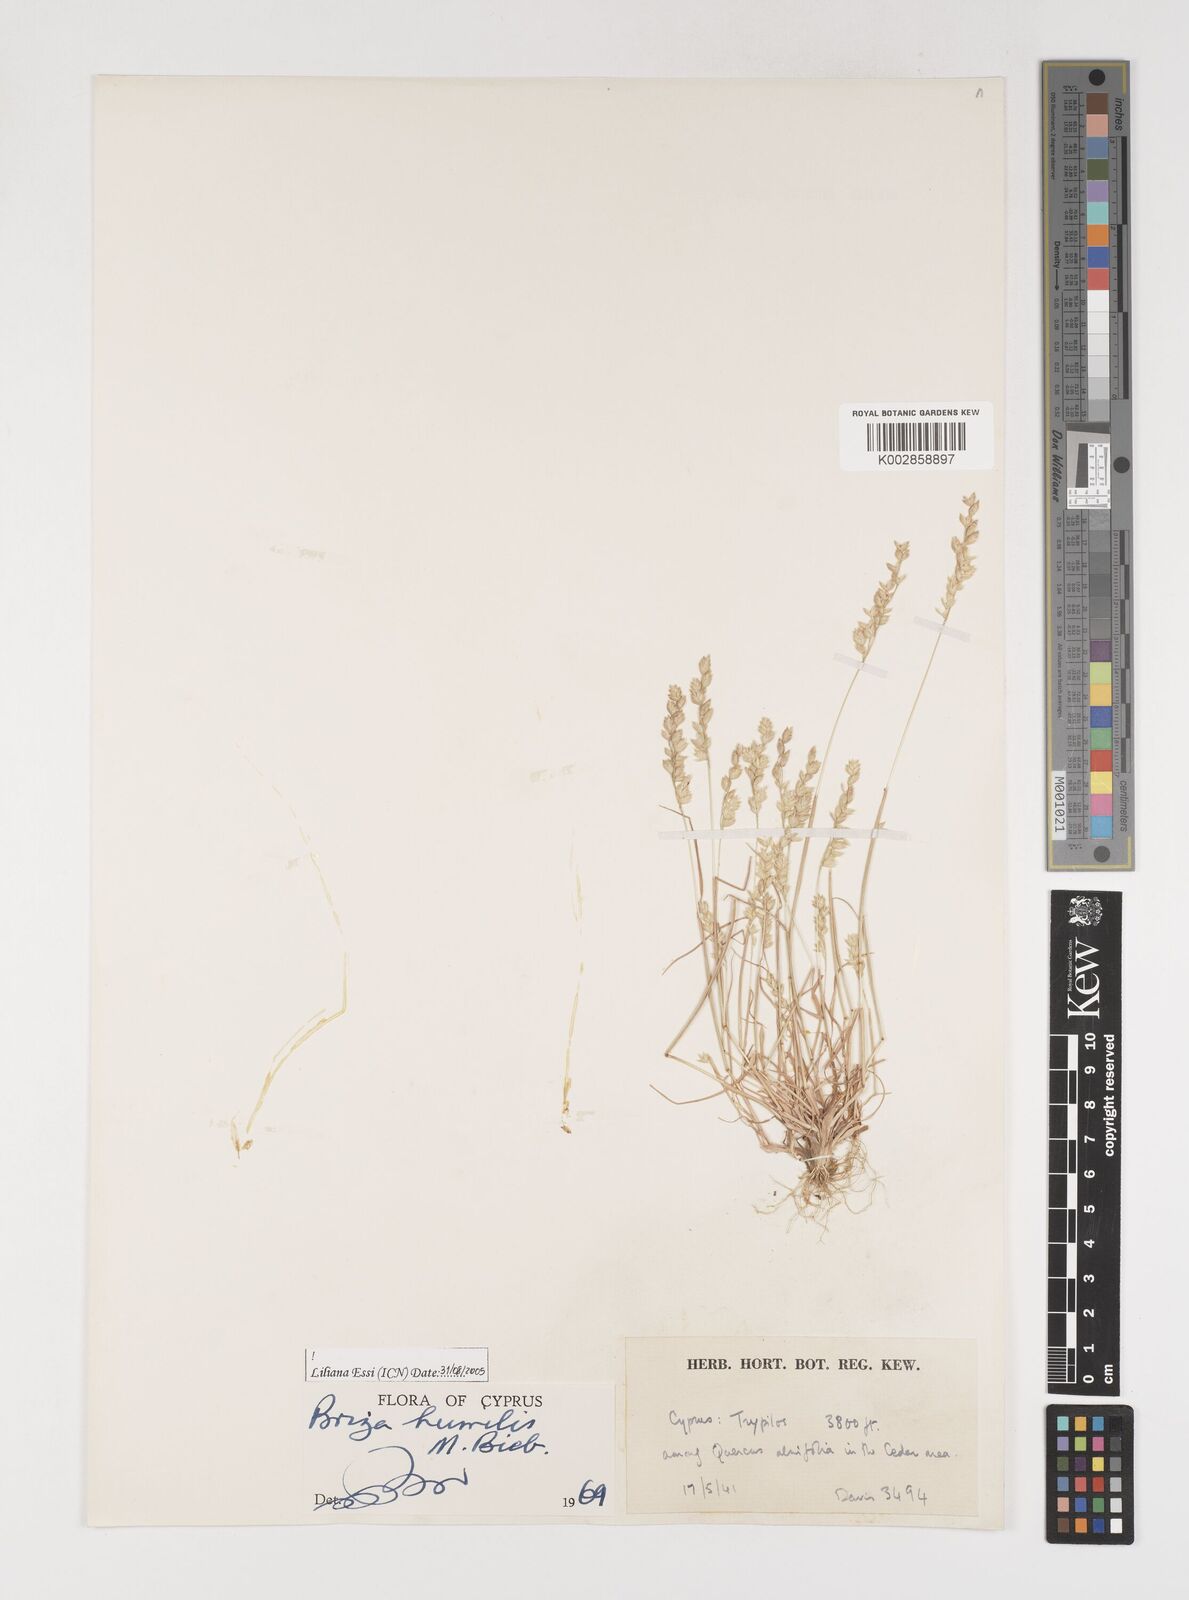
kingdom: Plantae
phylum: Tracheophyta
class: Liliopsida
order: Poales
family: Poaceae
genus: Briza
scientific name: Briza humilis
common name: Spiked quaking grass
